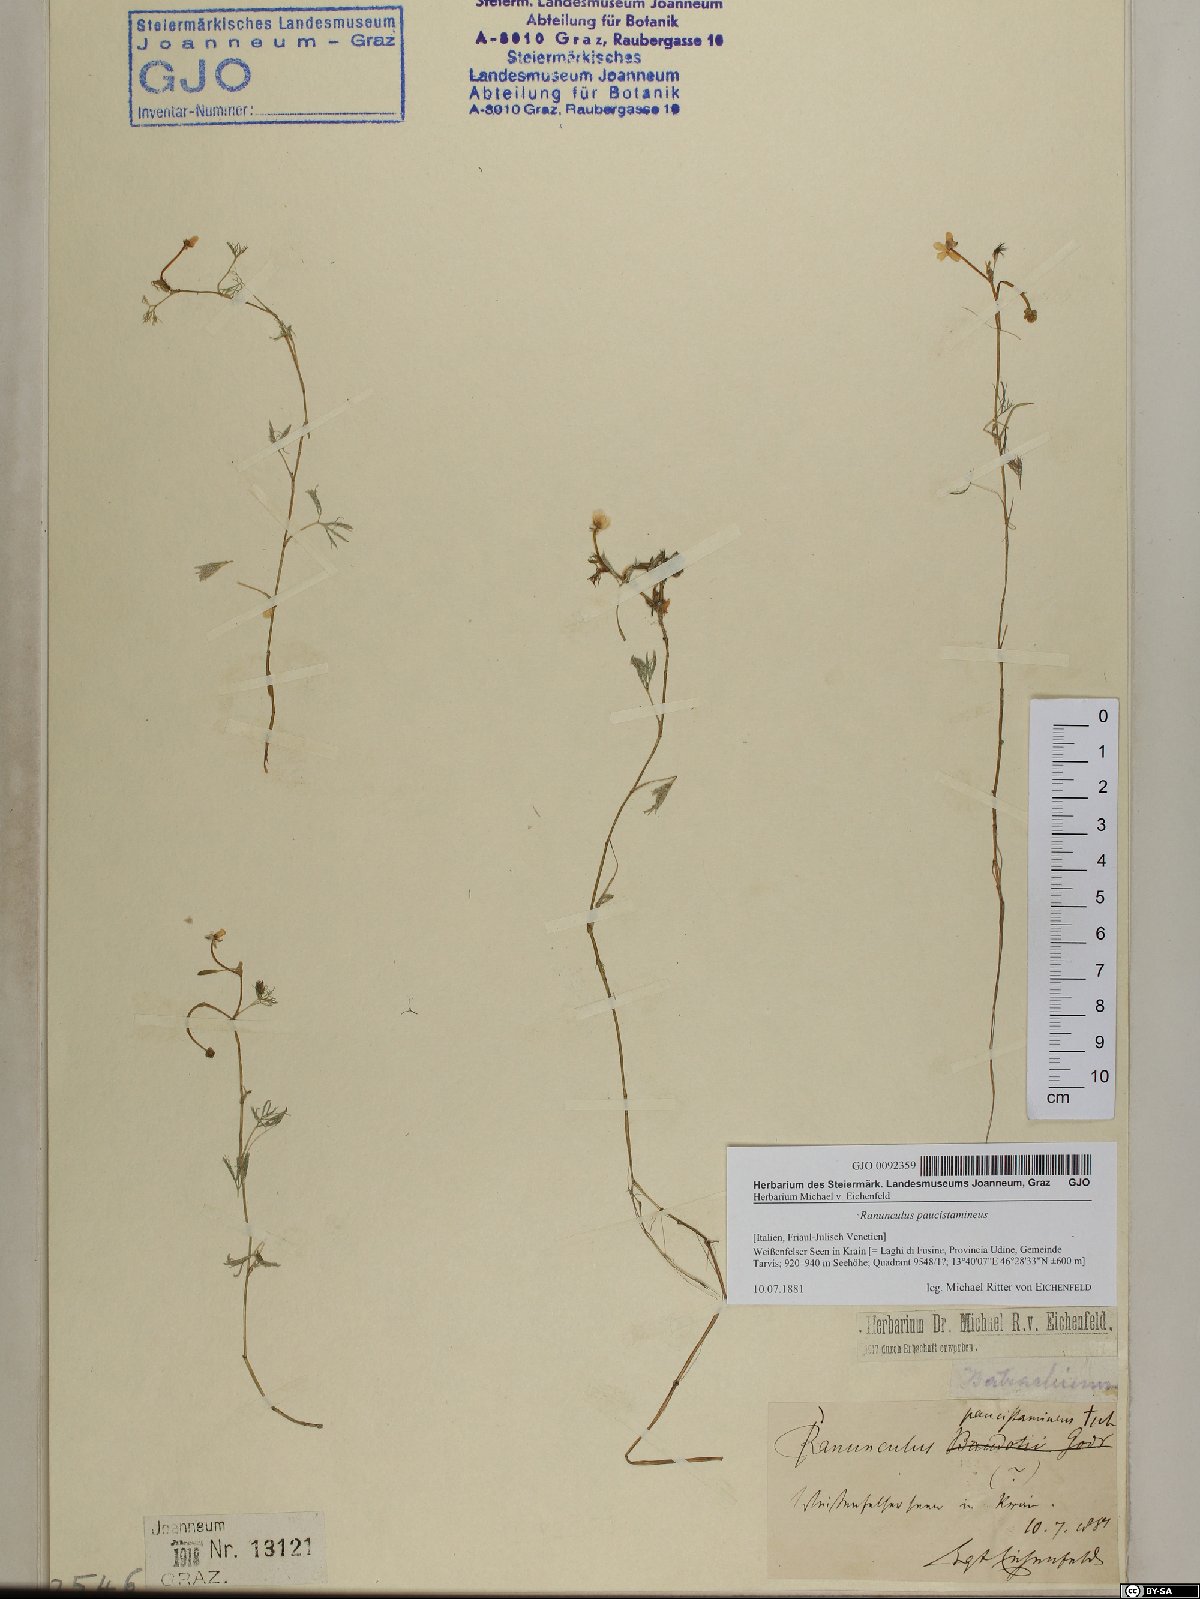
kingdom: Plantae
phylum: Tracheophyta
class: Magnoliopsida
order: Ranunculales
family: Ranunculaceae
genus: Ranunculus
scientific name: Ranunculus
